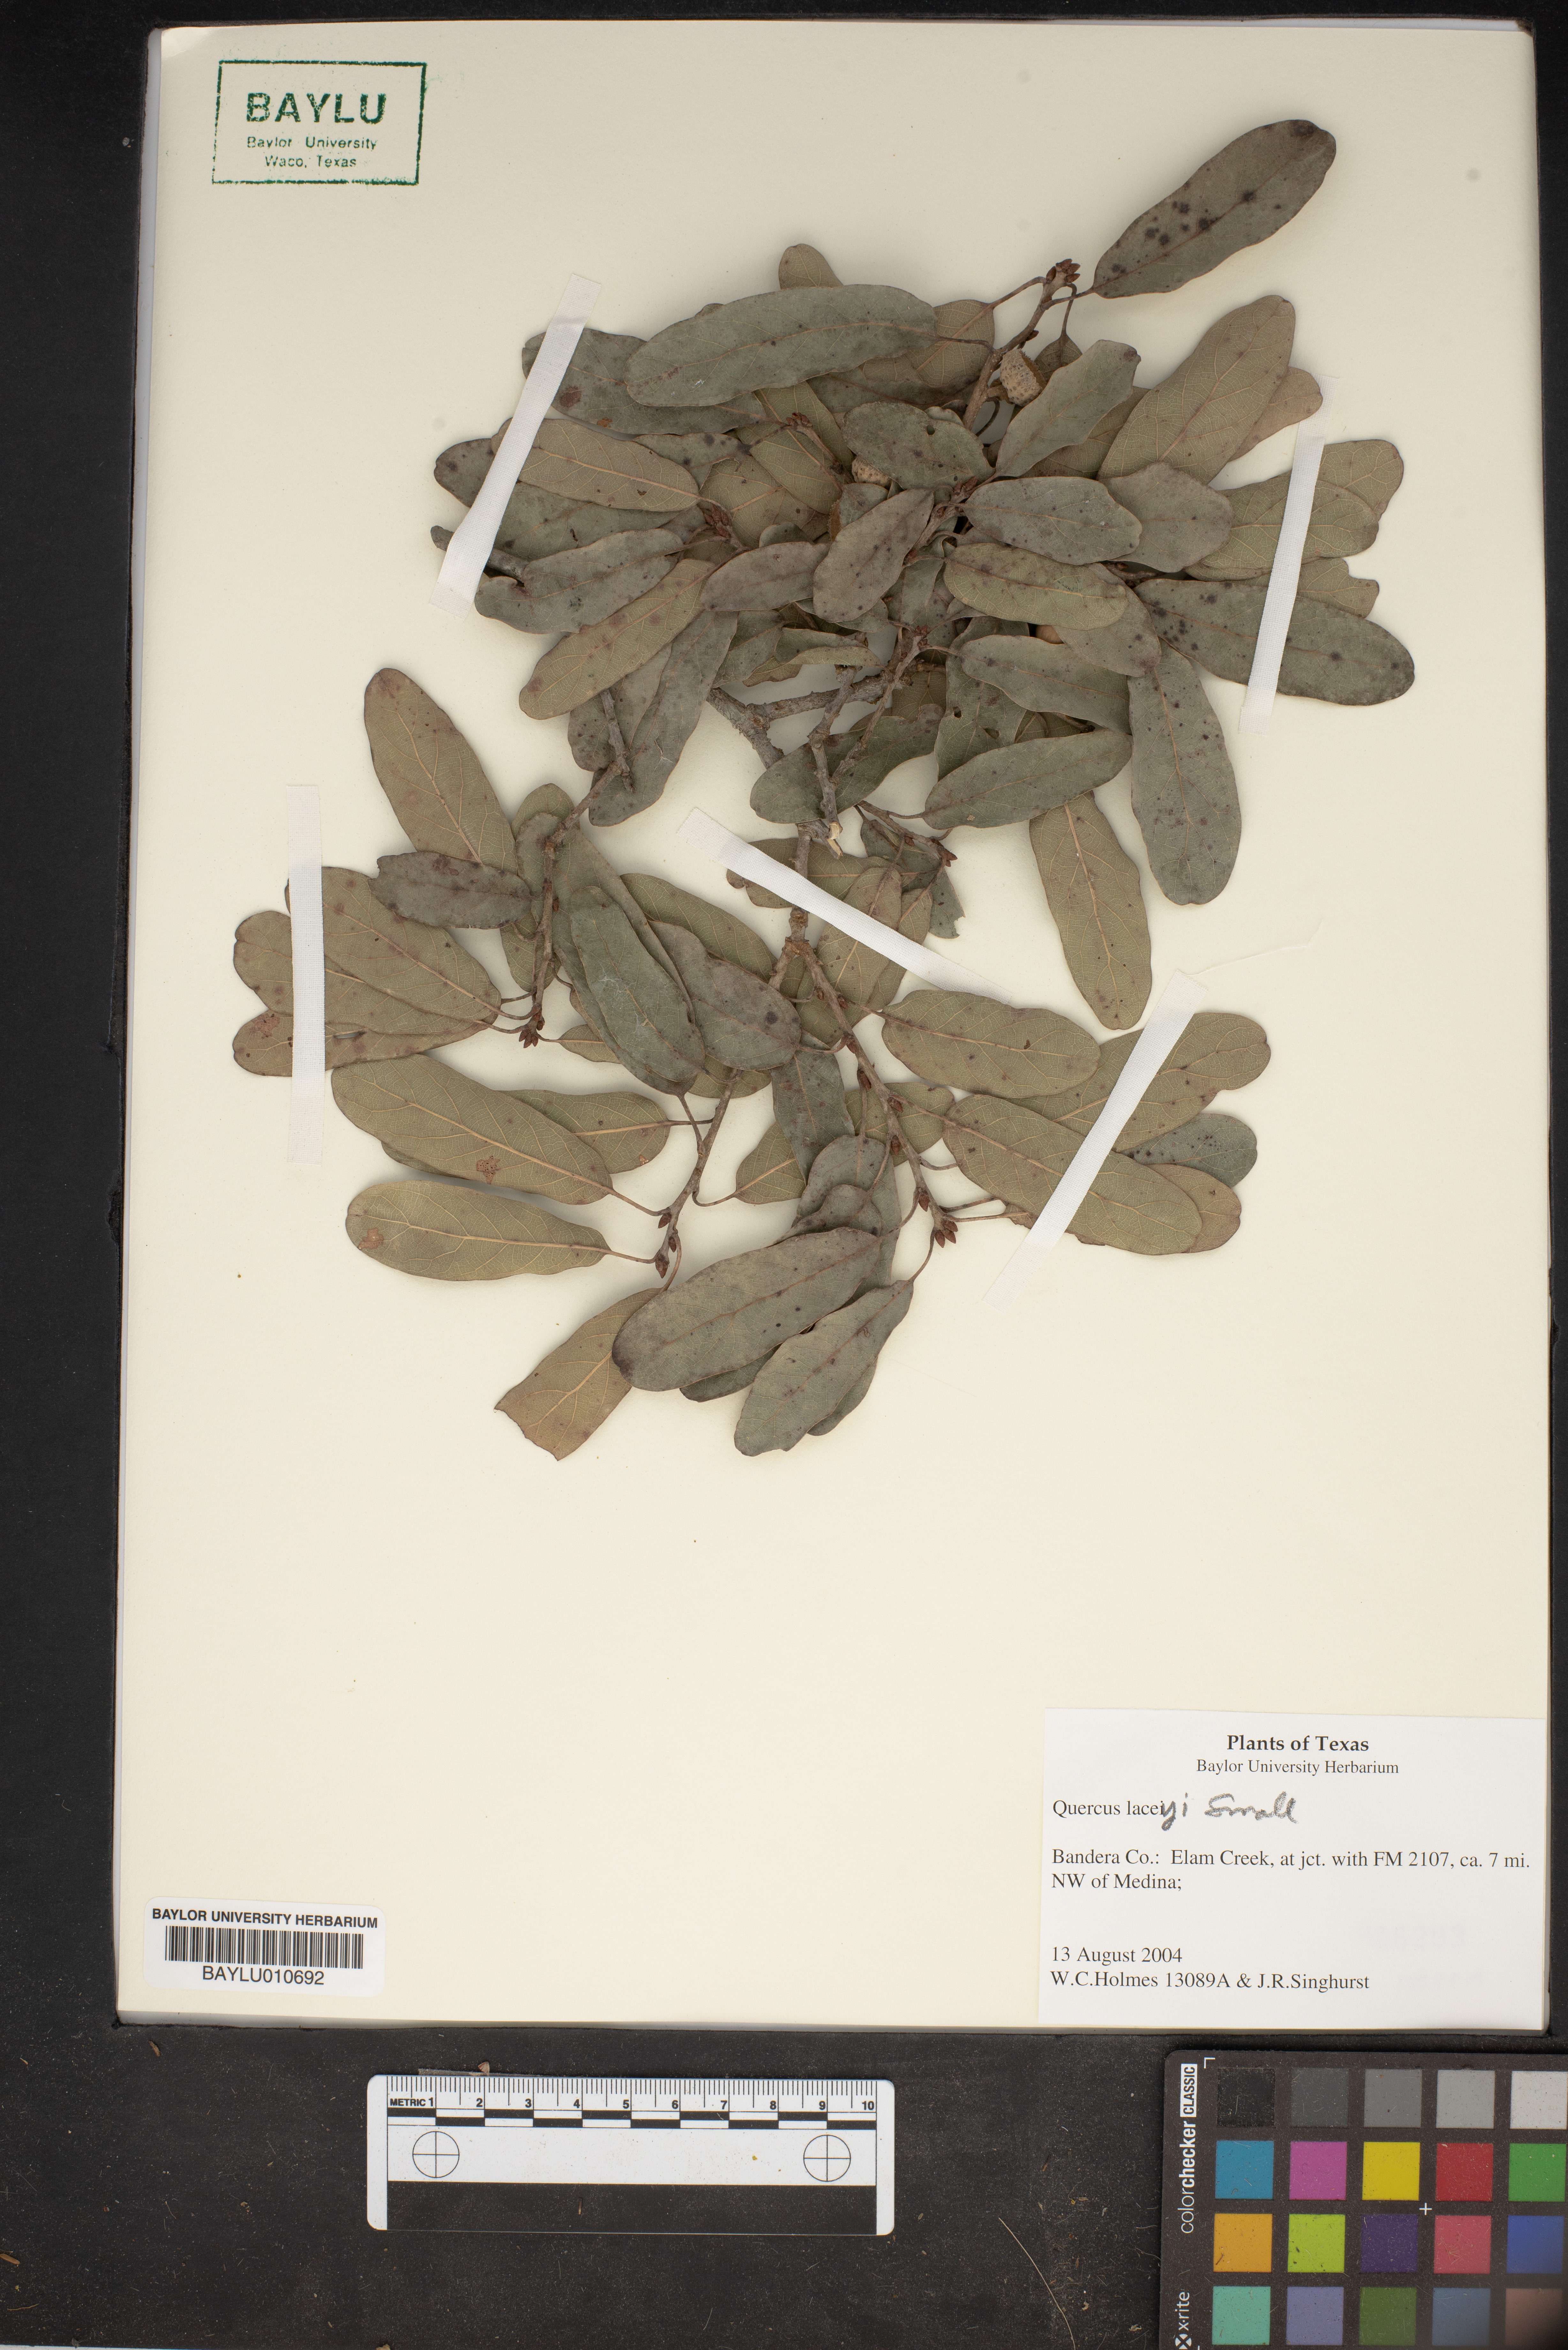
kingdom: Plantae
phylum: Tracheophyta
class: Magnoliopsida
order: Fagales
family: Fagaceae
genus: Quercus
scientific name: Quercus laceyi
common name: Lacey oak
